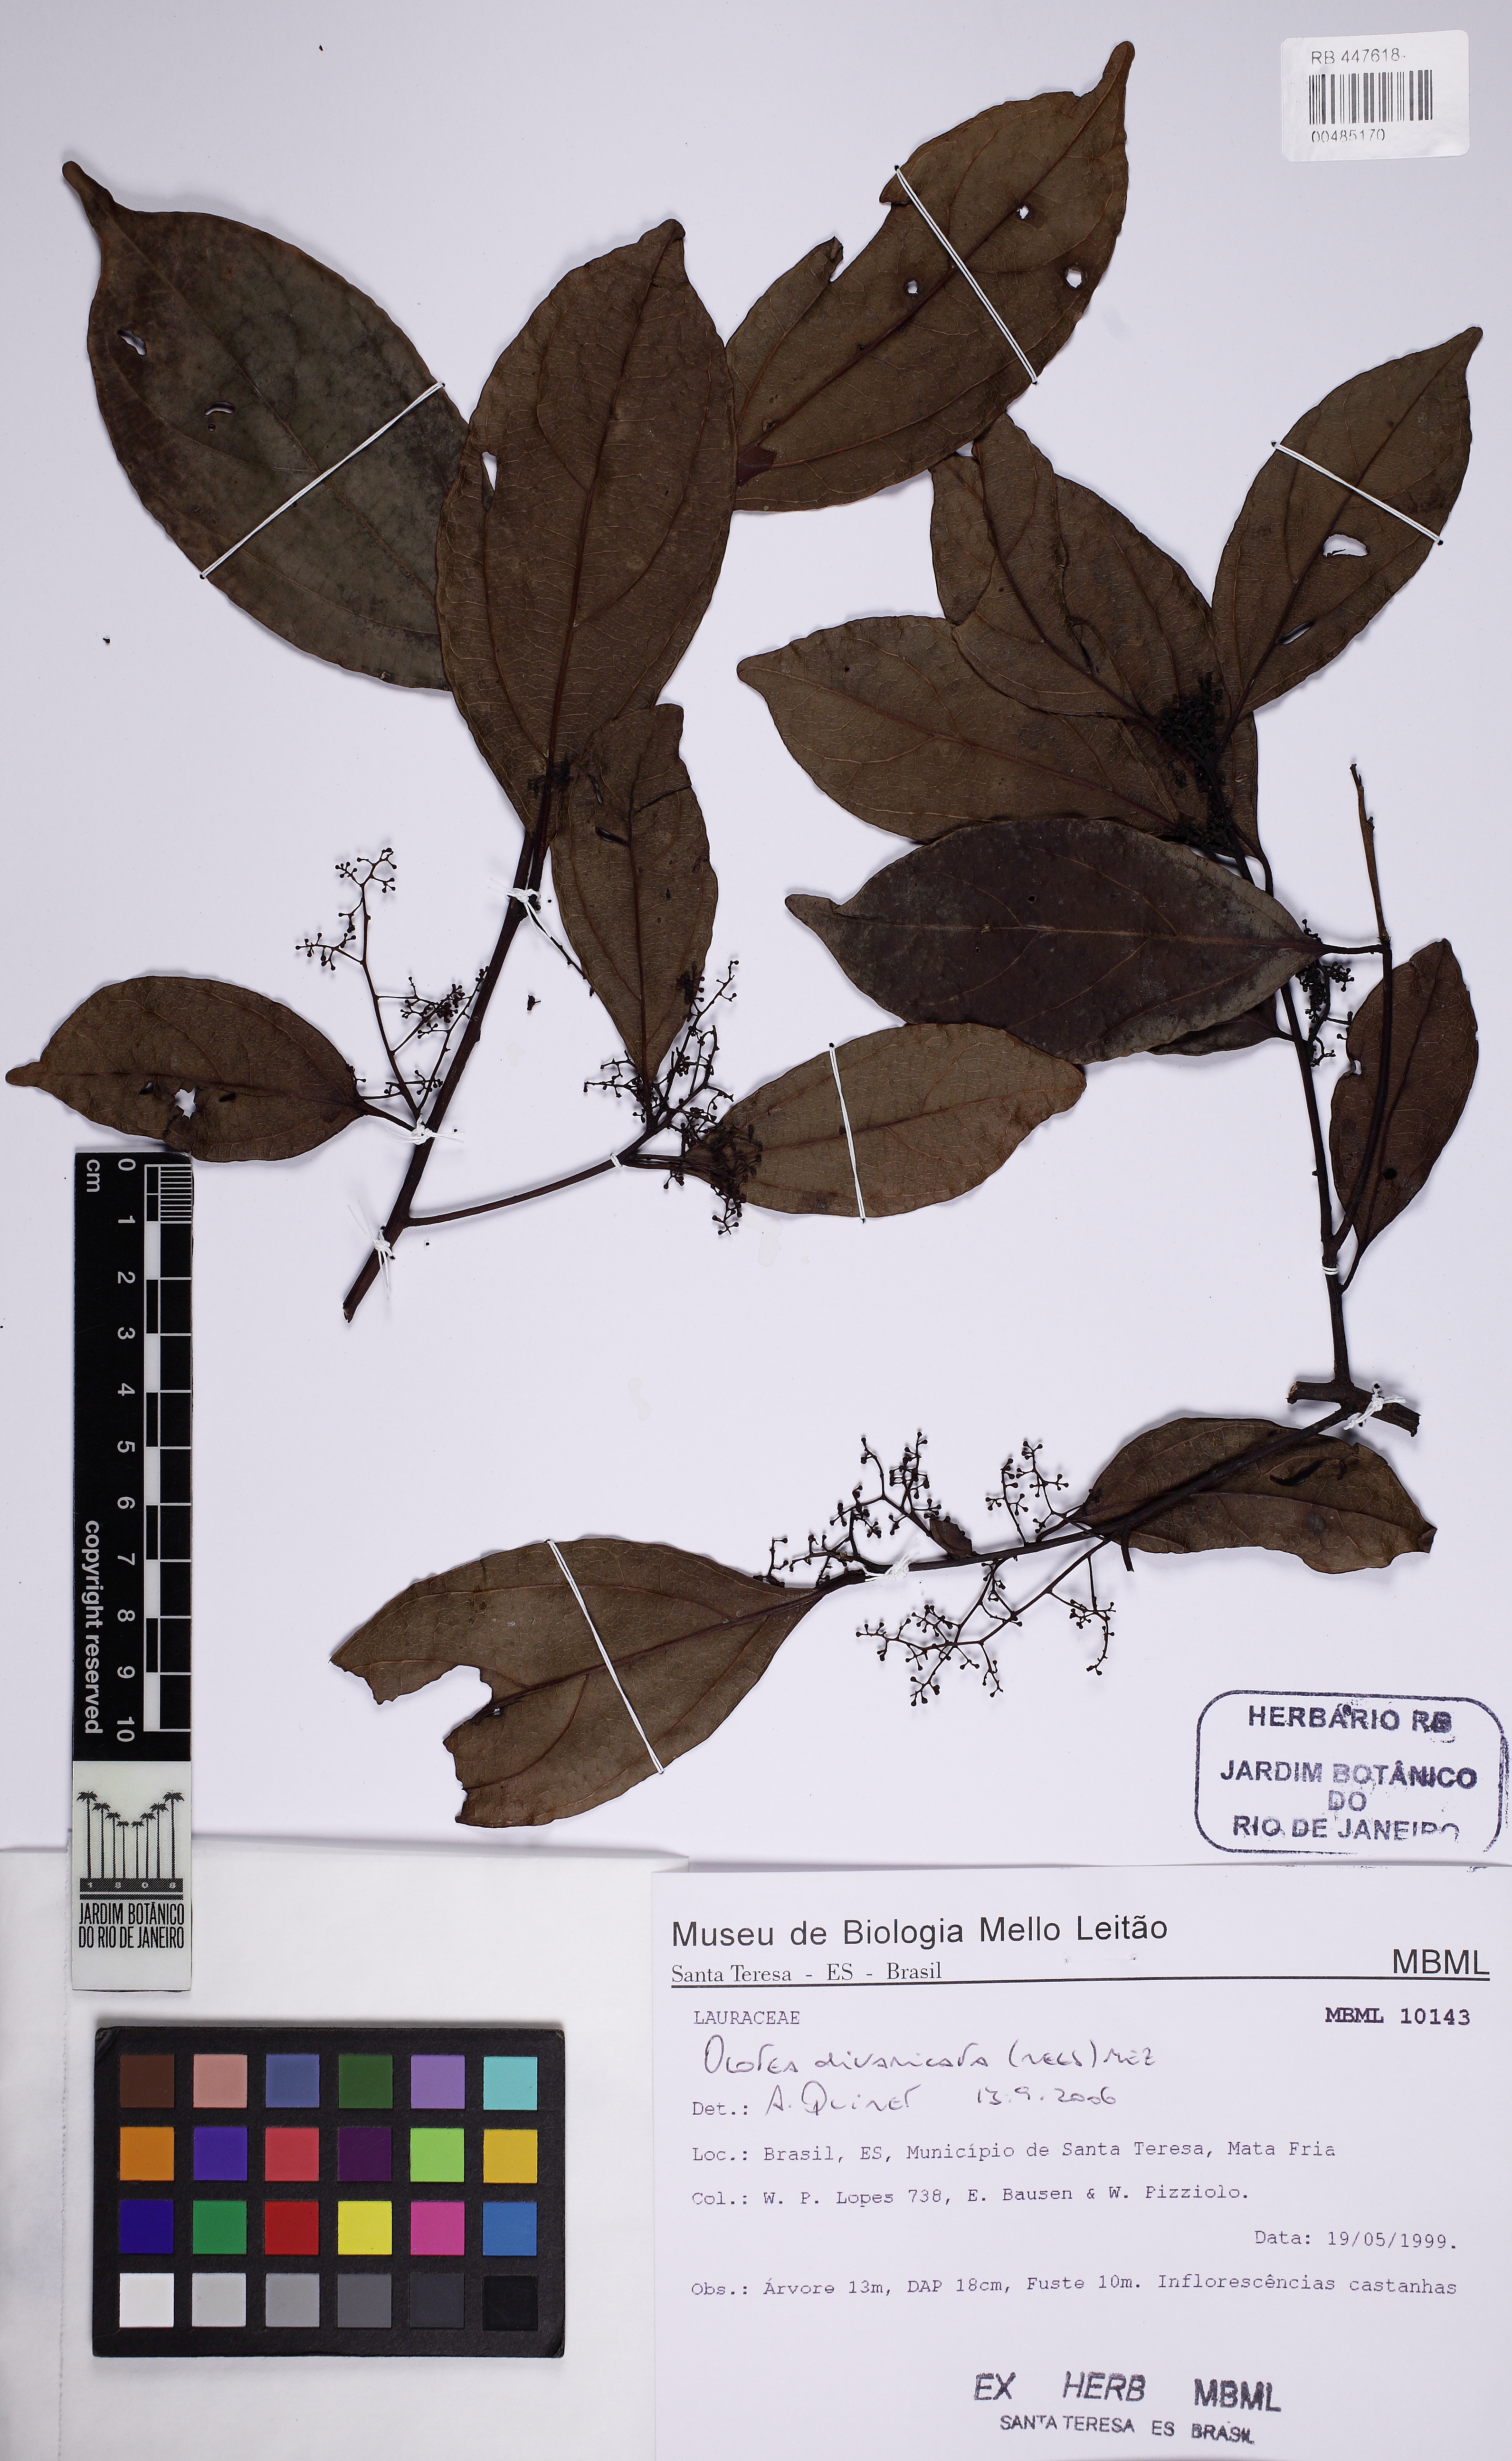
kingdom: Plantae
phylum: Tracheophyta
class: Magnoliopsida
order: Laurales
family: Lauraceae
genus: Ocotea
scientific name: Ocotea divaricata
